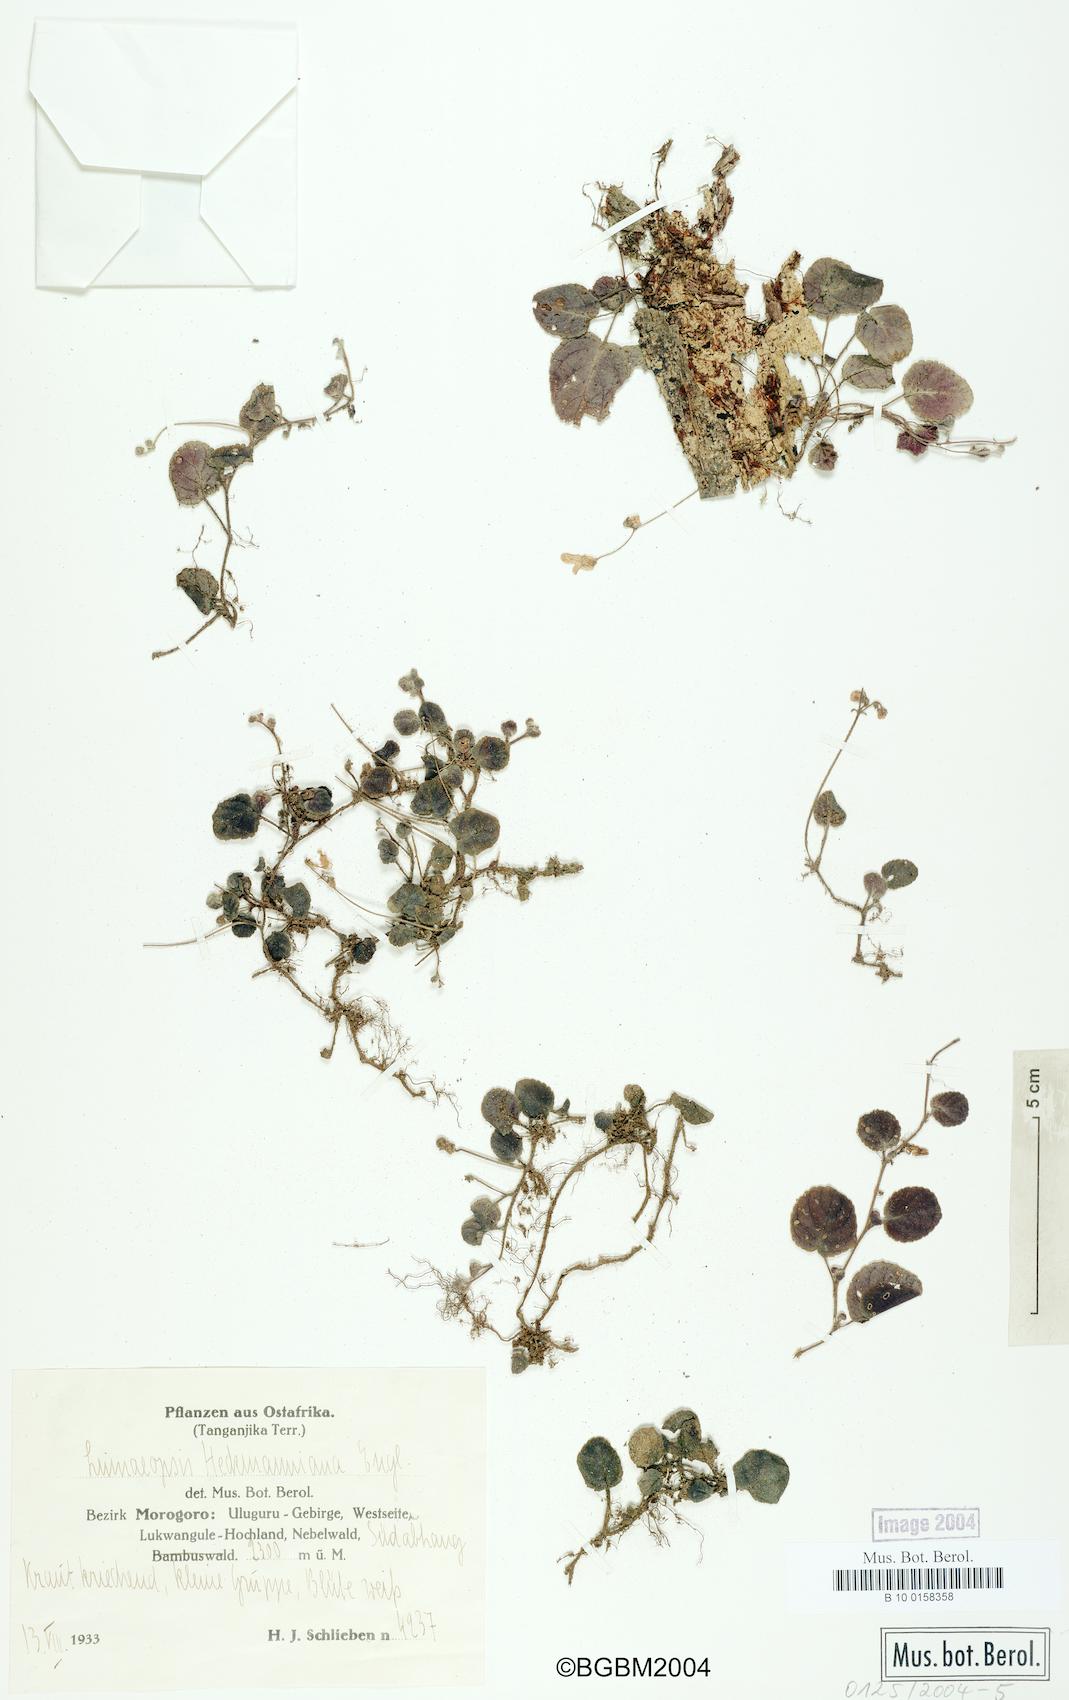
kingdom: Plantae
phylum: Tracheophyta
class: Magnoliopsida
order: Lamiales
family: Gesneriaceae
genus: Streptocarpus
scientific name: Streptocarpus
